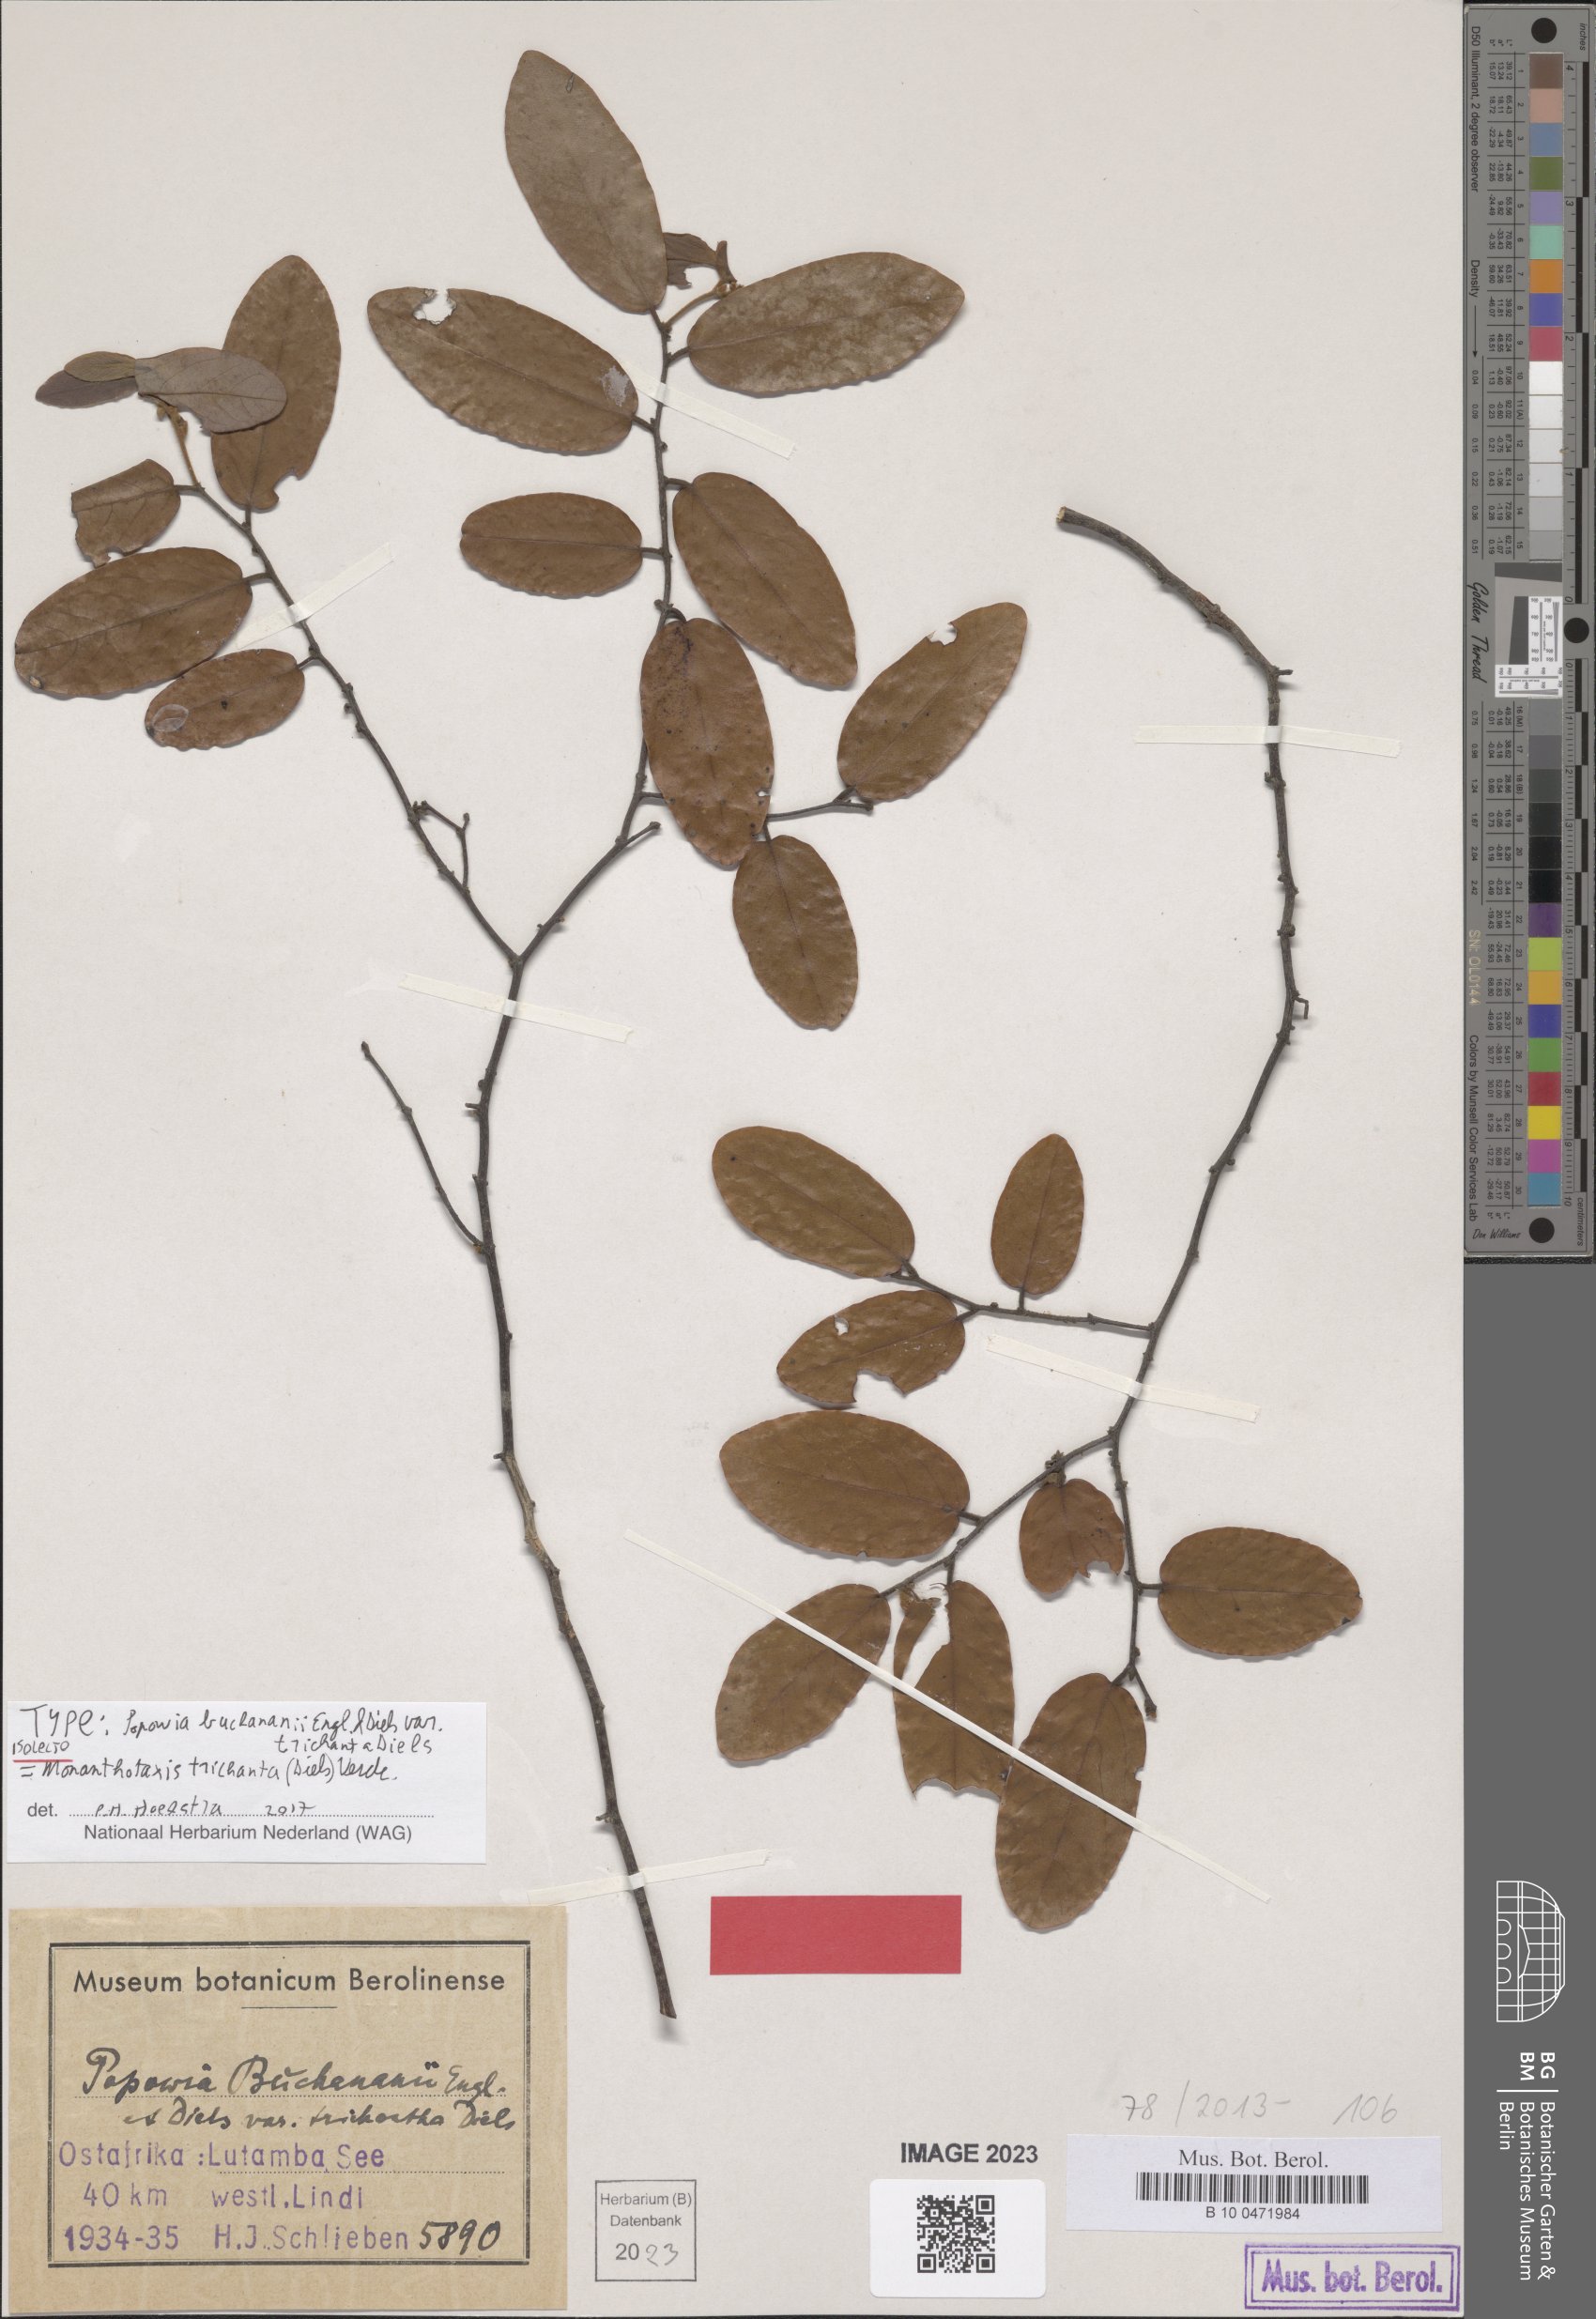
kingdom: Plantae
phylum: Tracheophyta
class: Magnoliopsida
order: Magnoliales
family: Annonaceae
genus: Monanthotaxis
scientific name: Monanthotaxis trichantha
